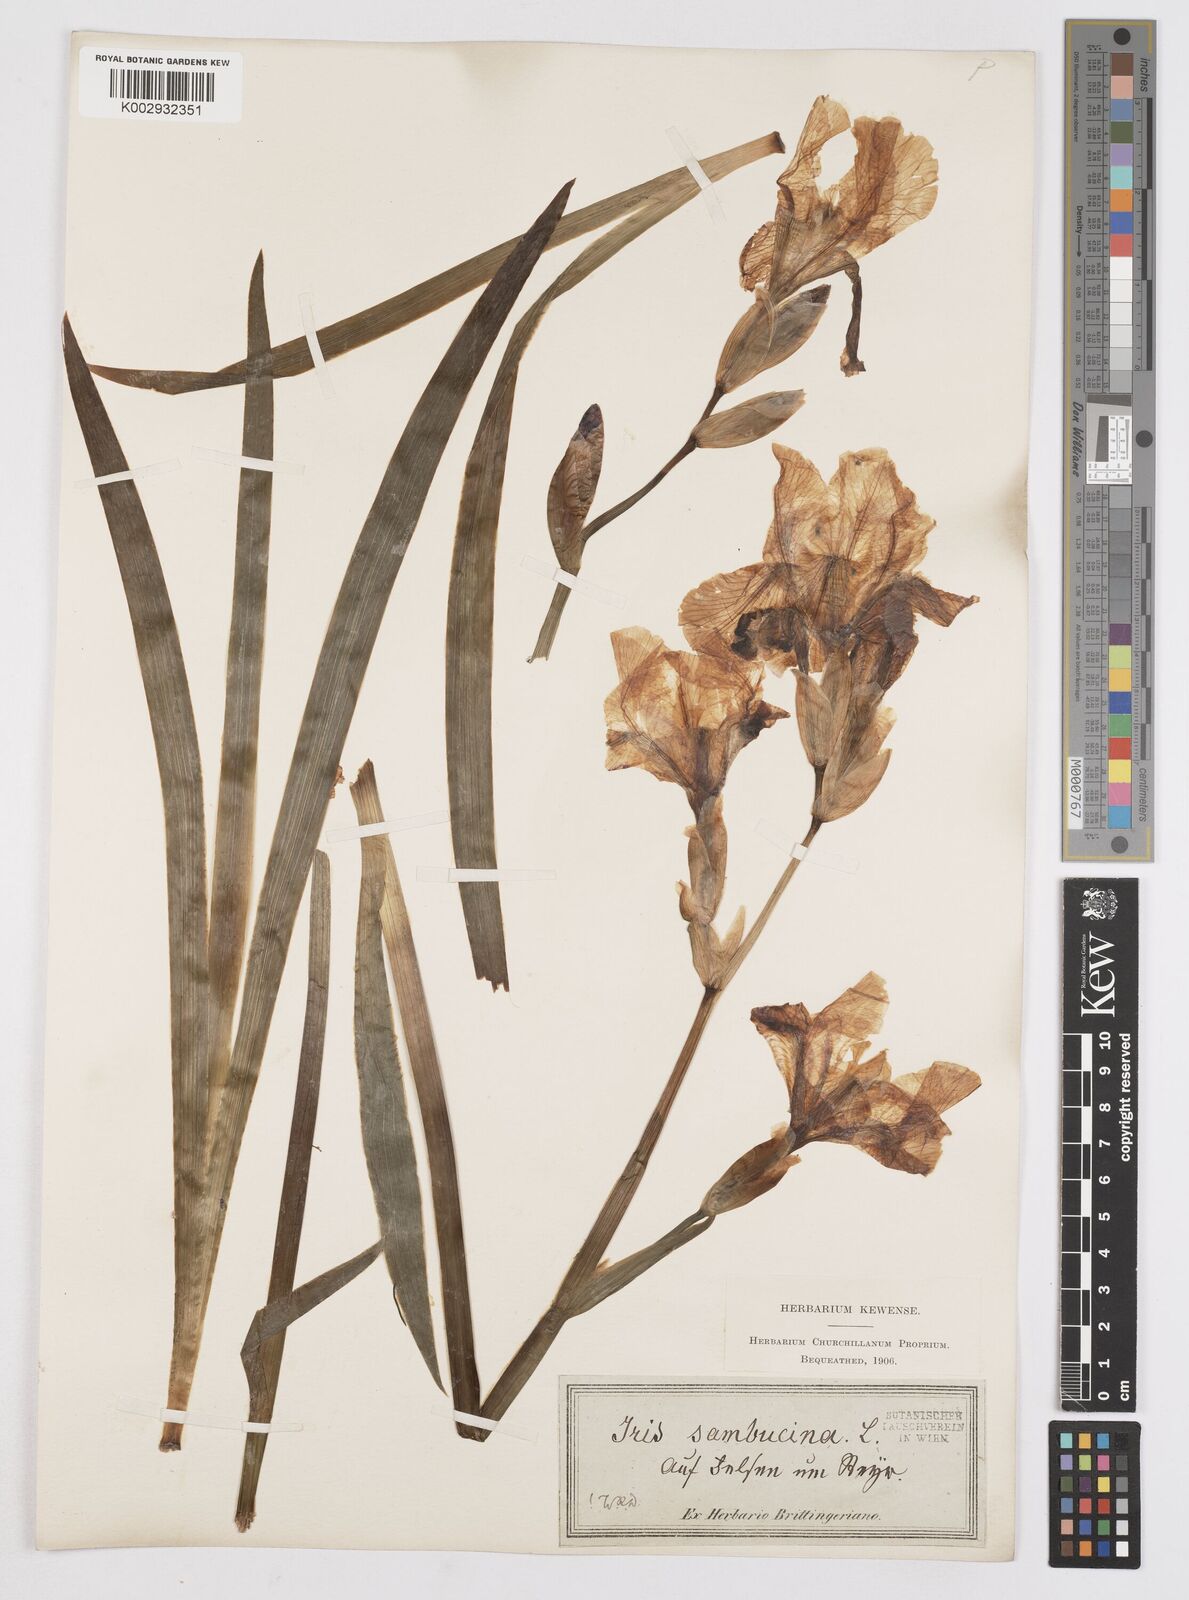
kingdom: Plantae
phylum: Tracheophyta
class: Liliopsida
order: Asparagales
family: Iridaceae
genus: Iris
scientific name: Iris germanica
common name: German iris
